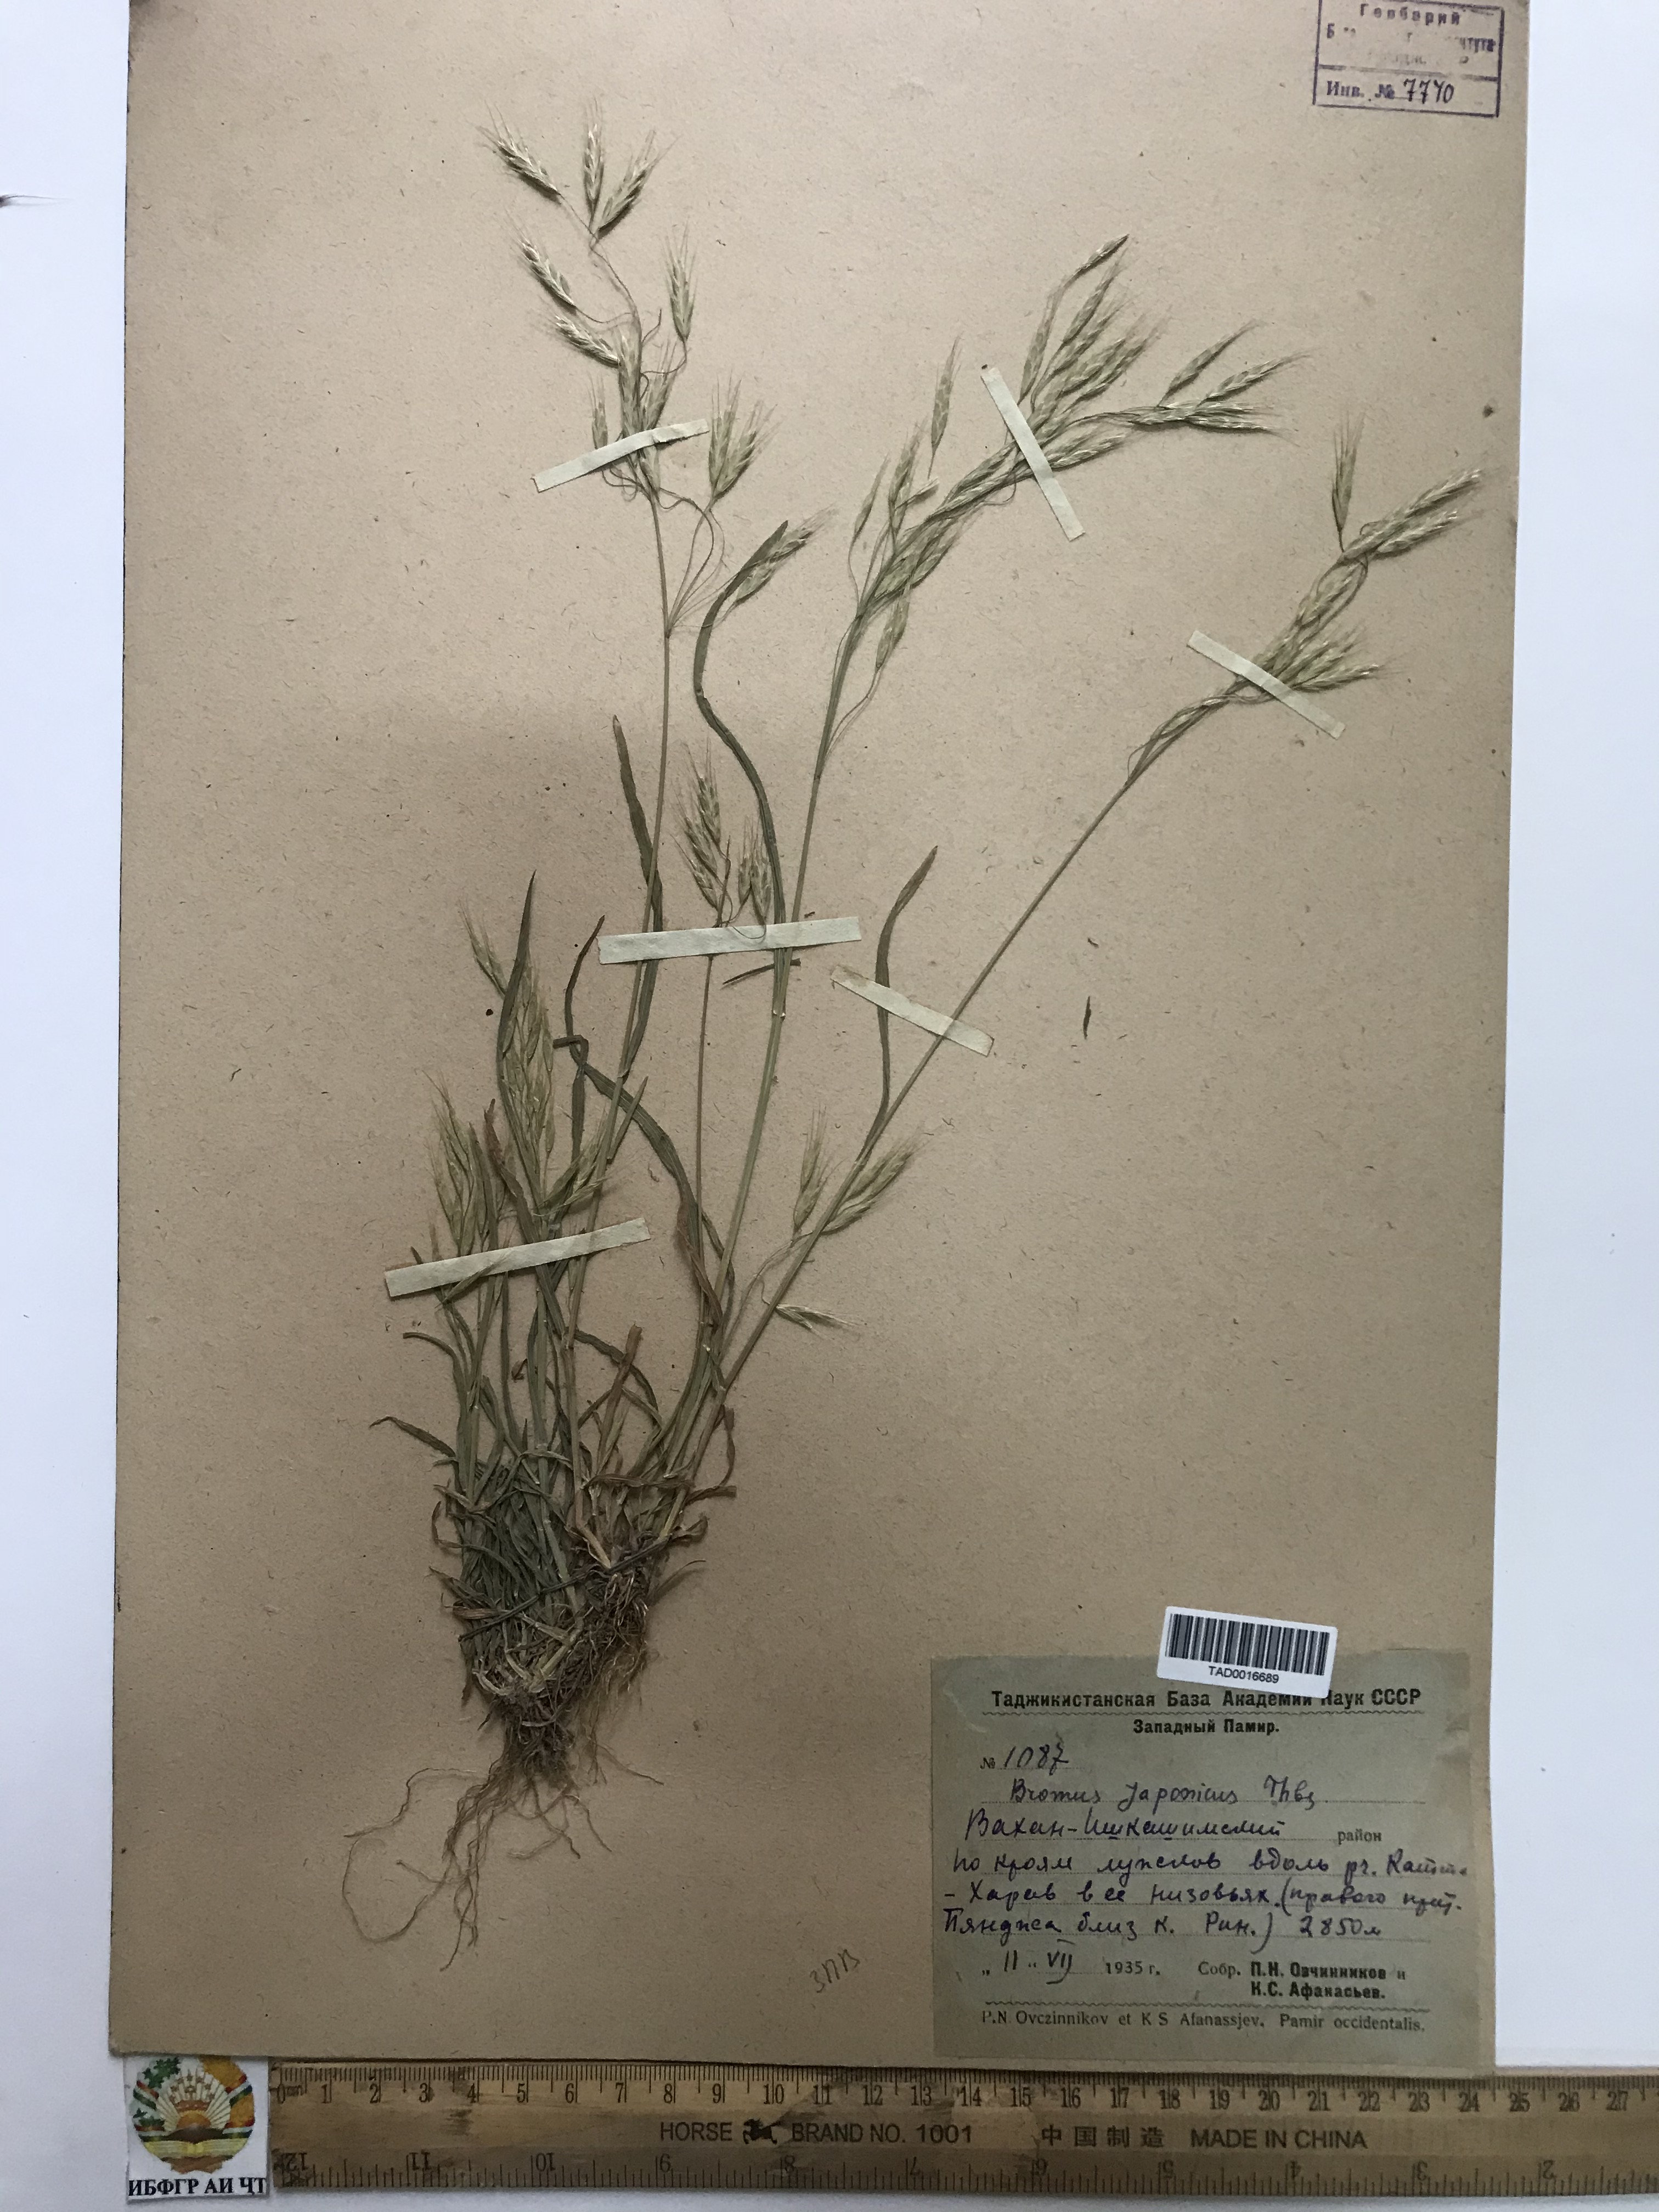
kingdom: Plantae
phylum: Tracheophyta
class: Liliopsida
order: Poales
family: Poaceae
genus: Bromus
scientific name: Bromus japonicus
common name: Japanese brome
